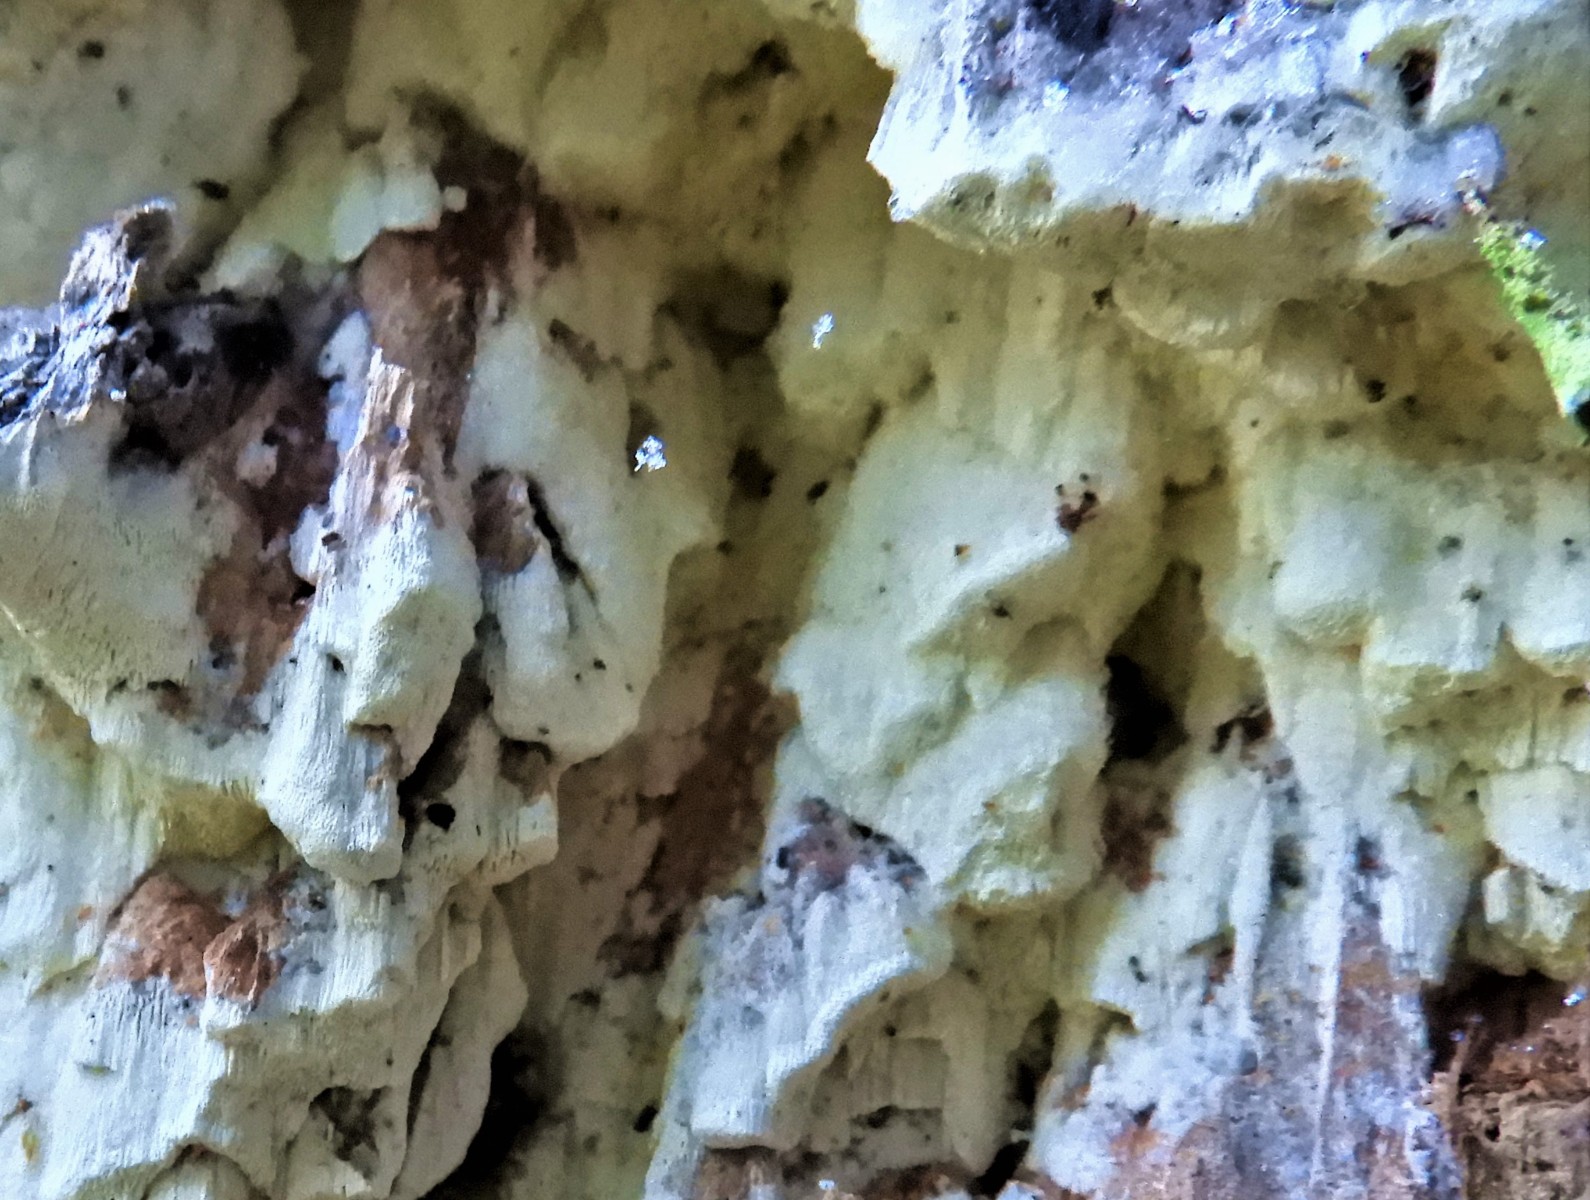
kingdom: Fungi
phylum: Basidiomycota
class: Agaricomycetes
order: Polyporales
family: Fomitopsidaceae
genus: Daedalea
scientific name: Daedalea xantha
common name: gul sejporesvamp
